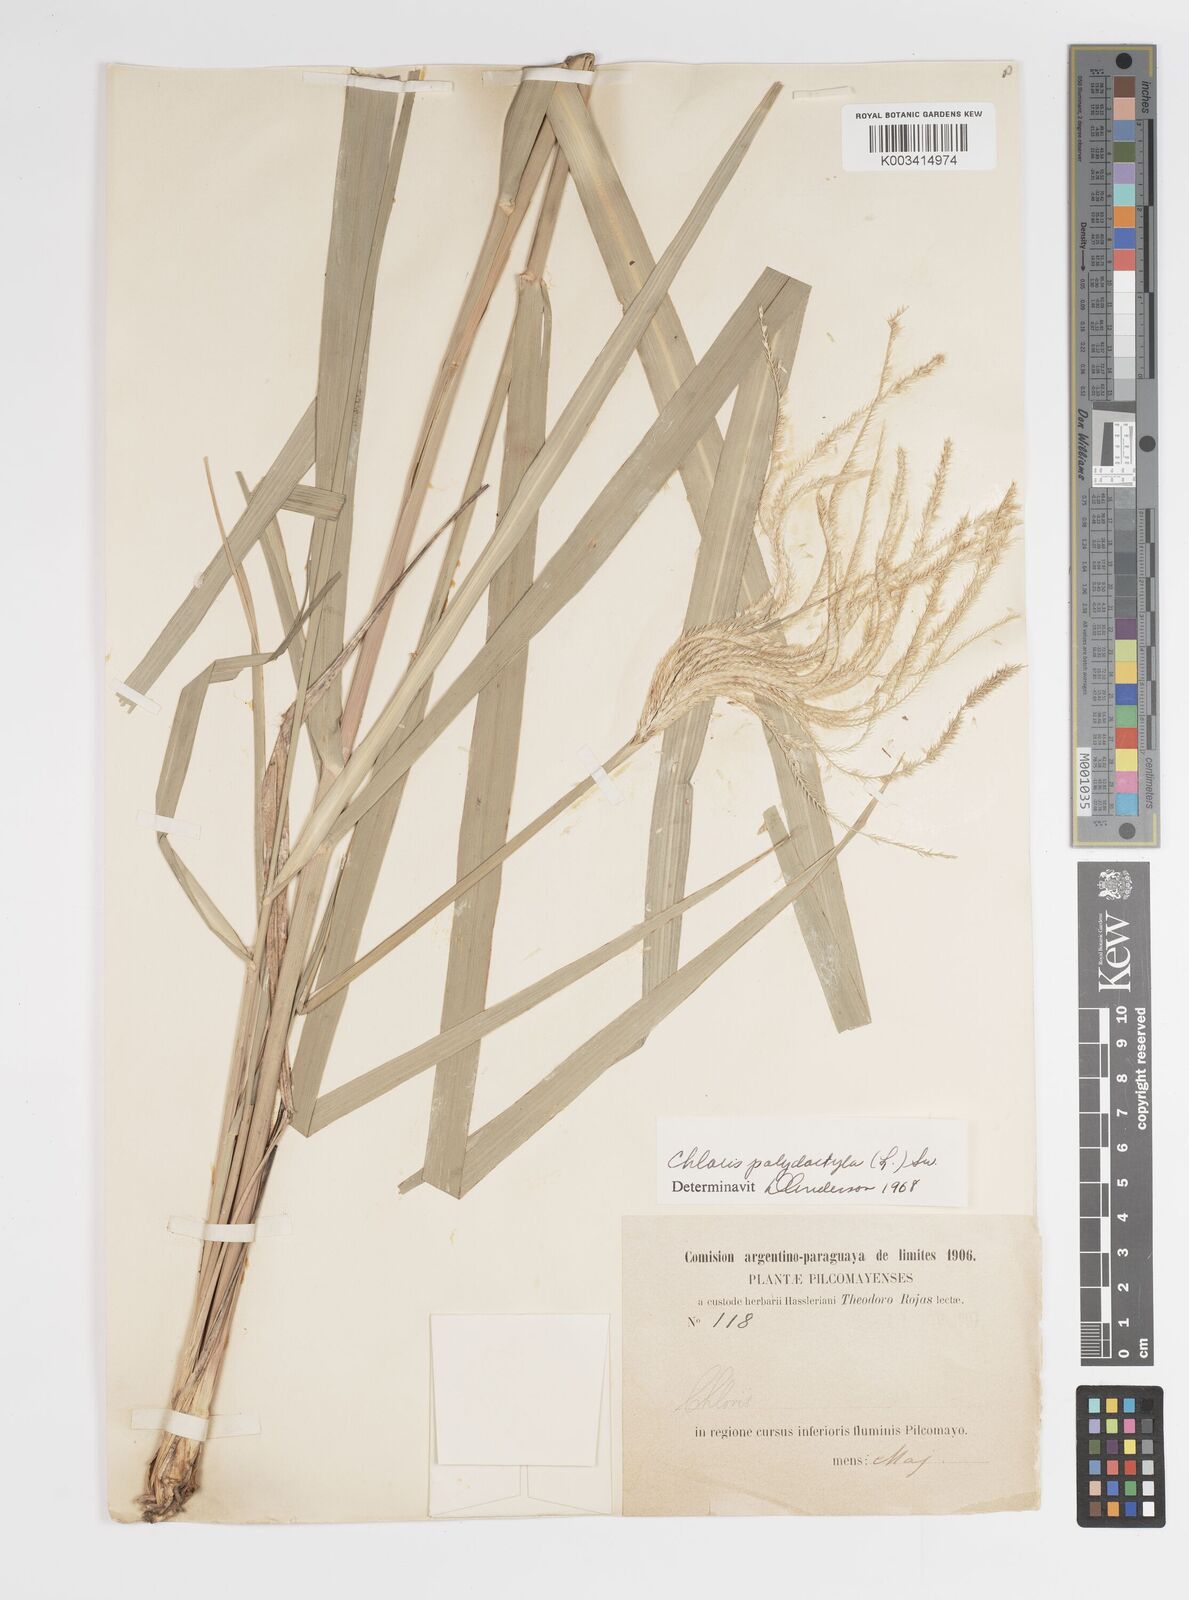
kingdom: Plantae
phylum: Tracheophyta
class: Liliopsida
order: Poales
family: Poaceae
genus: Stapfochloa
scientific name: Stapfochloa elata
